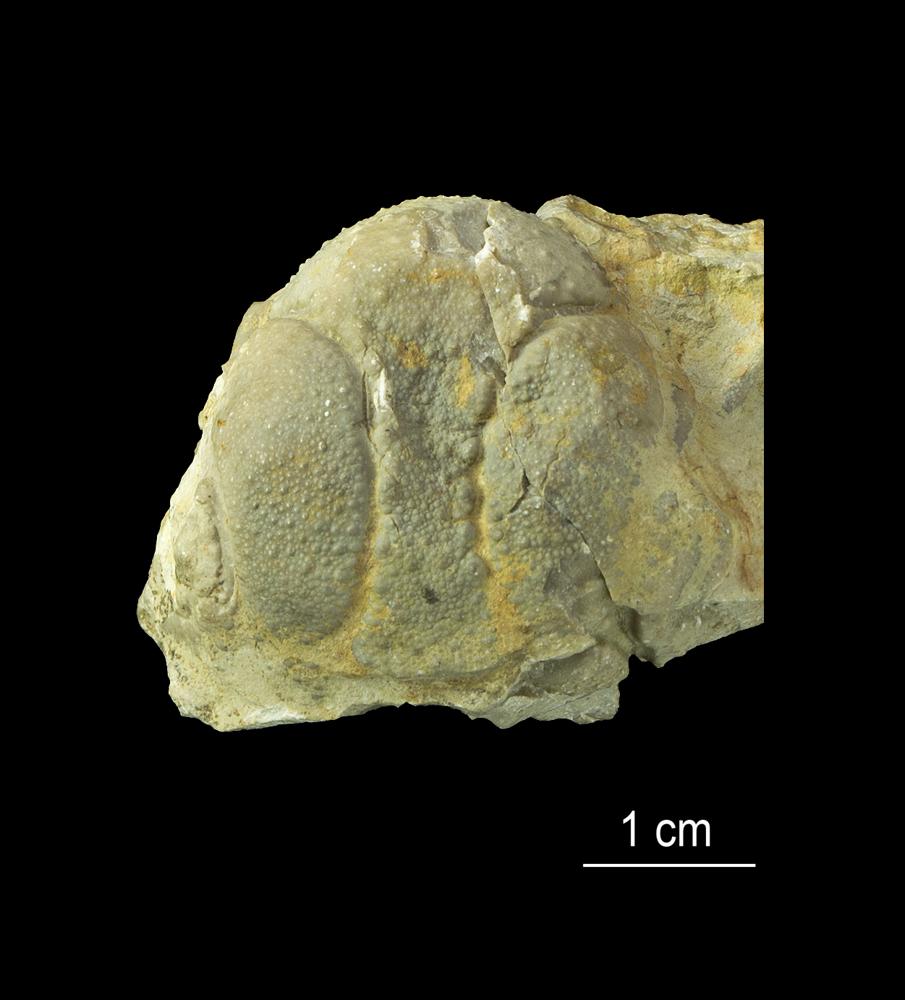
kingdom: Animalia
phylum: Arthropoda
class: Trilobita
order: Lichida
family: Lichidae
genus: Conolichas
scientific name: Conolichas eichwaldi
